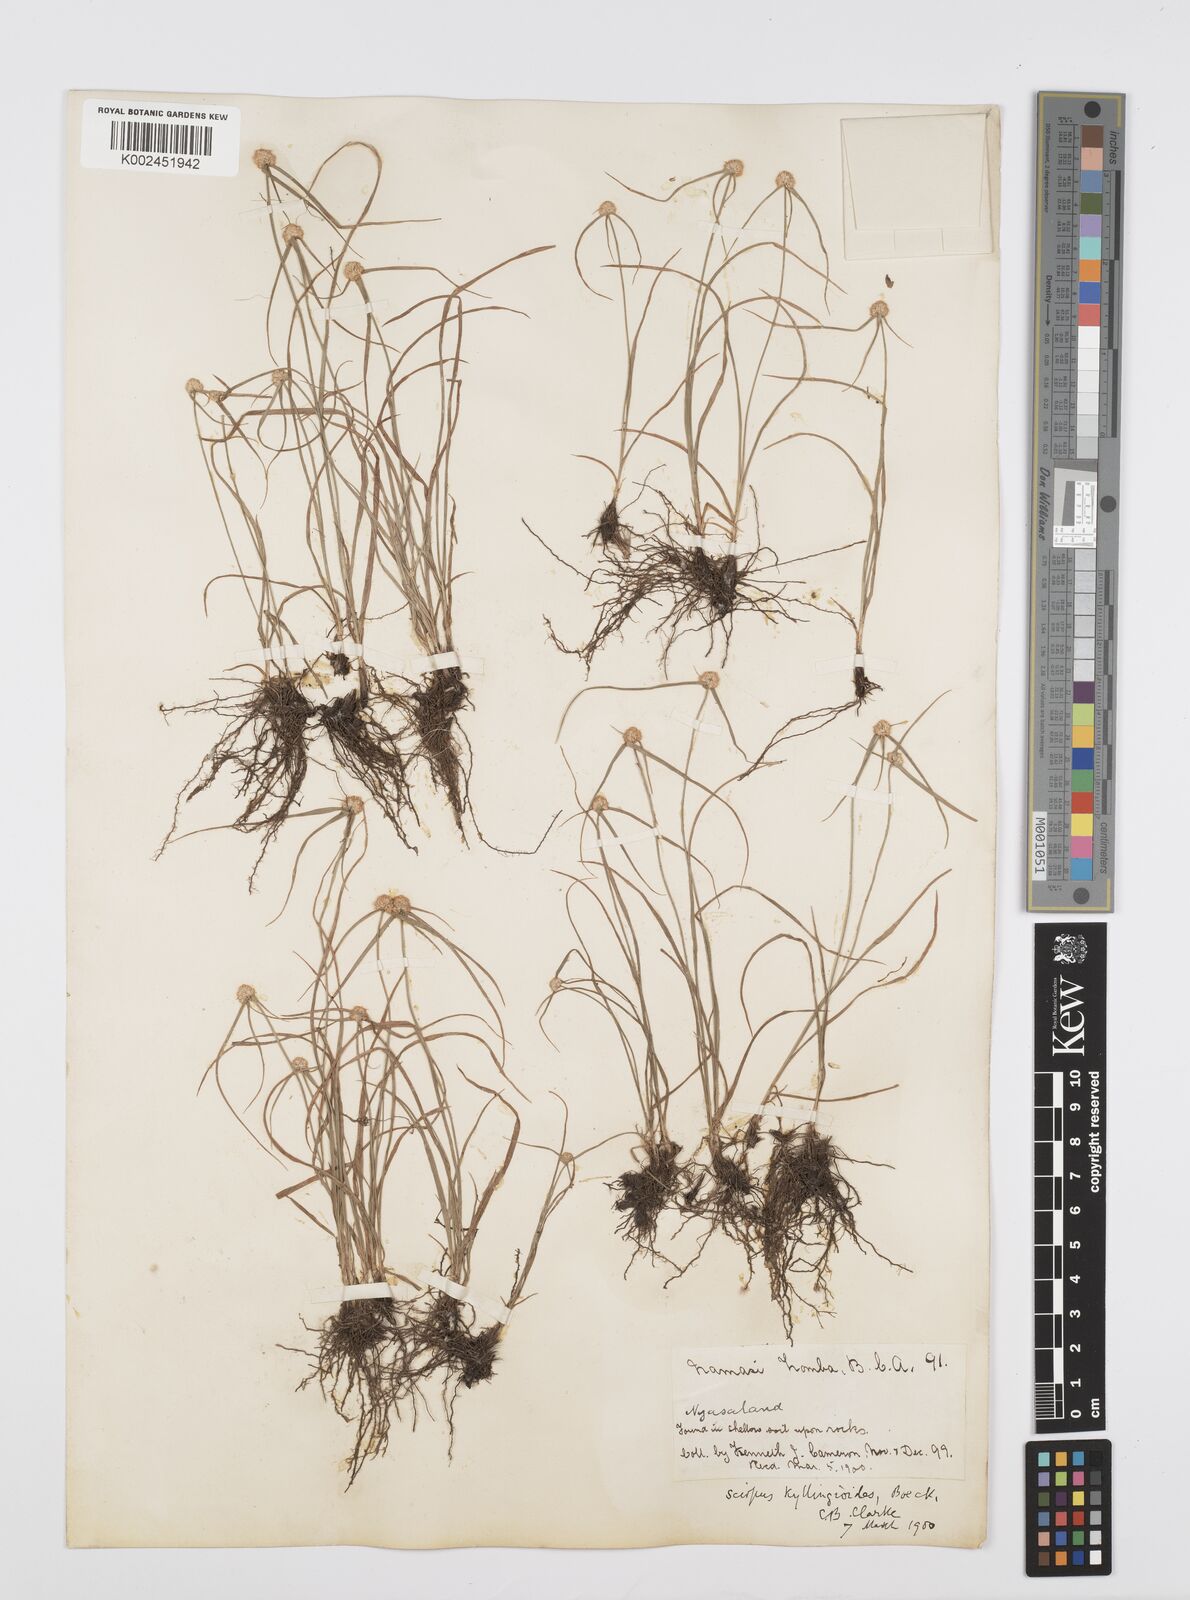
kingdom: Plantae
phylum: Tracheophyta
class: Liliopsida
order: Poales
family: Cyperaceae
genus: Cyperus
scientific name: Cyperus microcephalus
